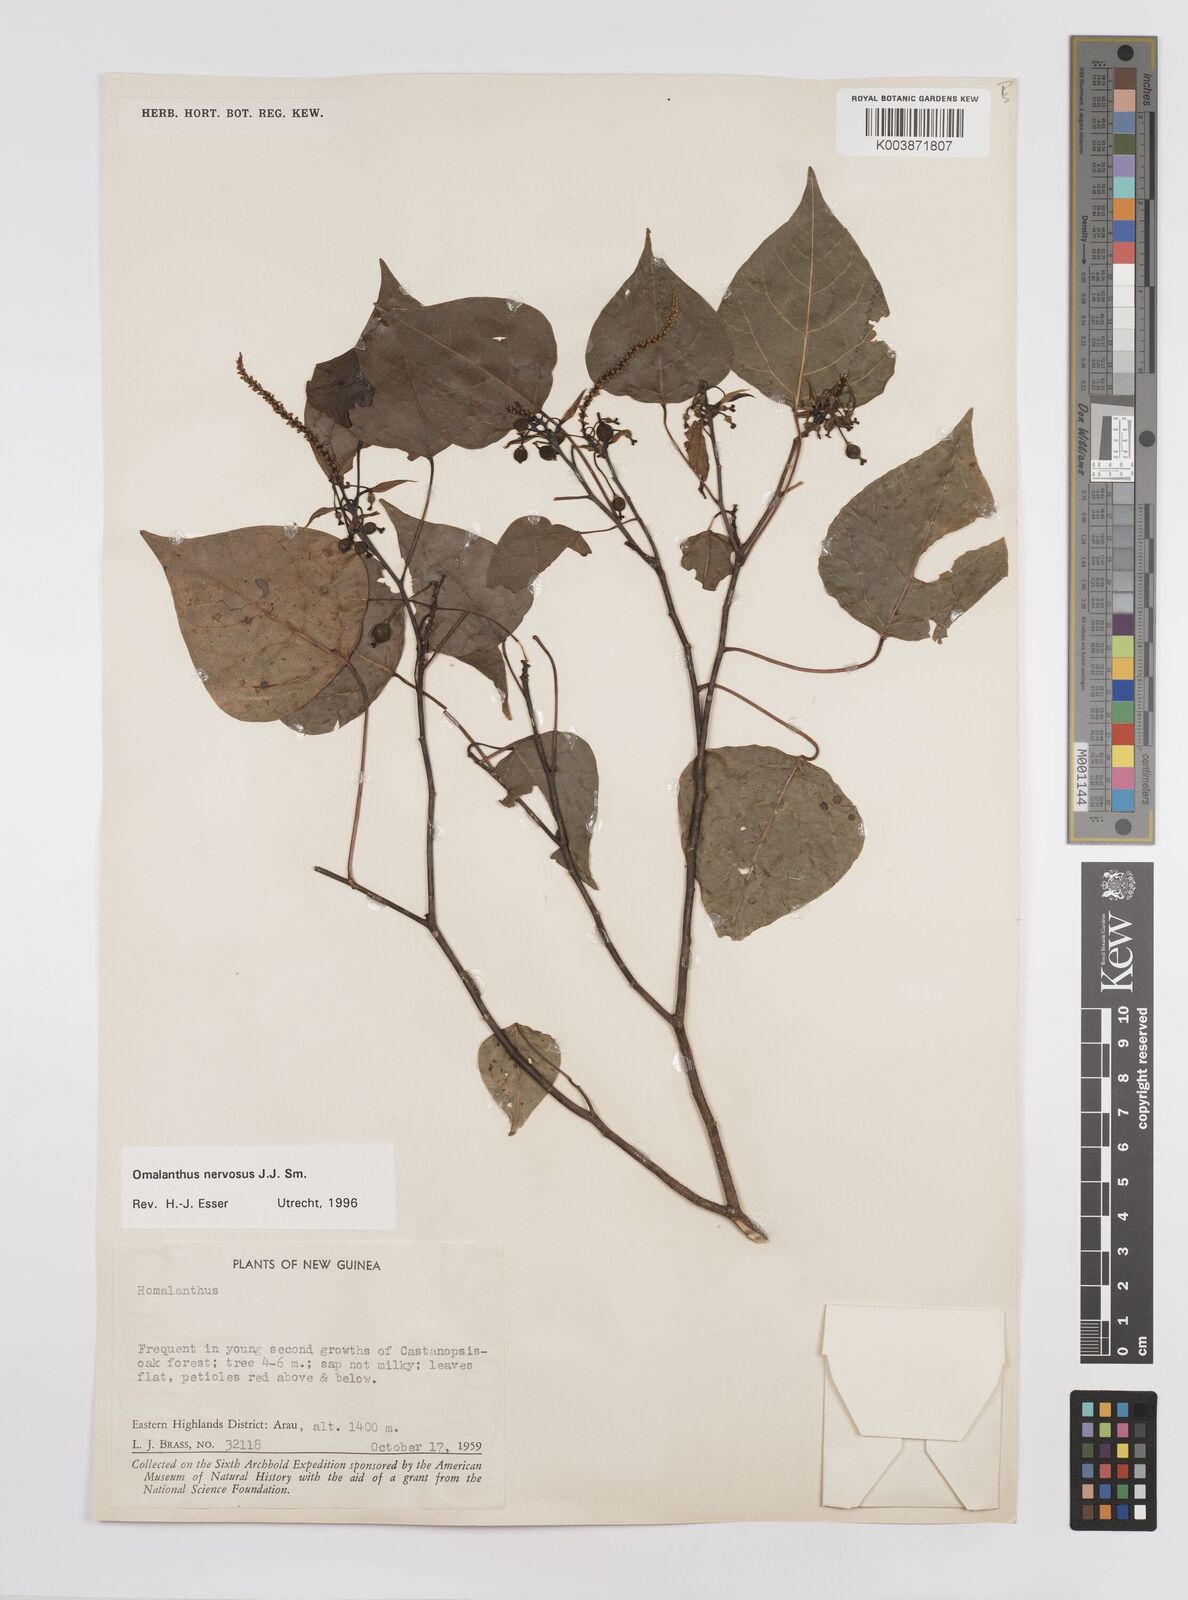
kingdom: Plantae
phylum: Tracheophyta
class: Magnoliopsida
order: Malpighiales
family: Euphorbiaceae
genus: Homalanthus
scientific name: Homalanthus nervosus
